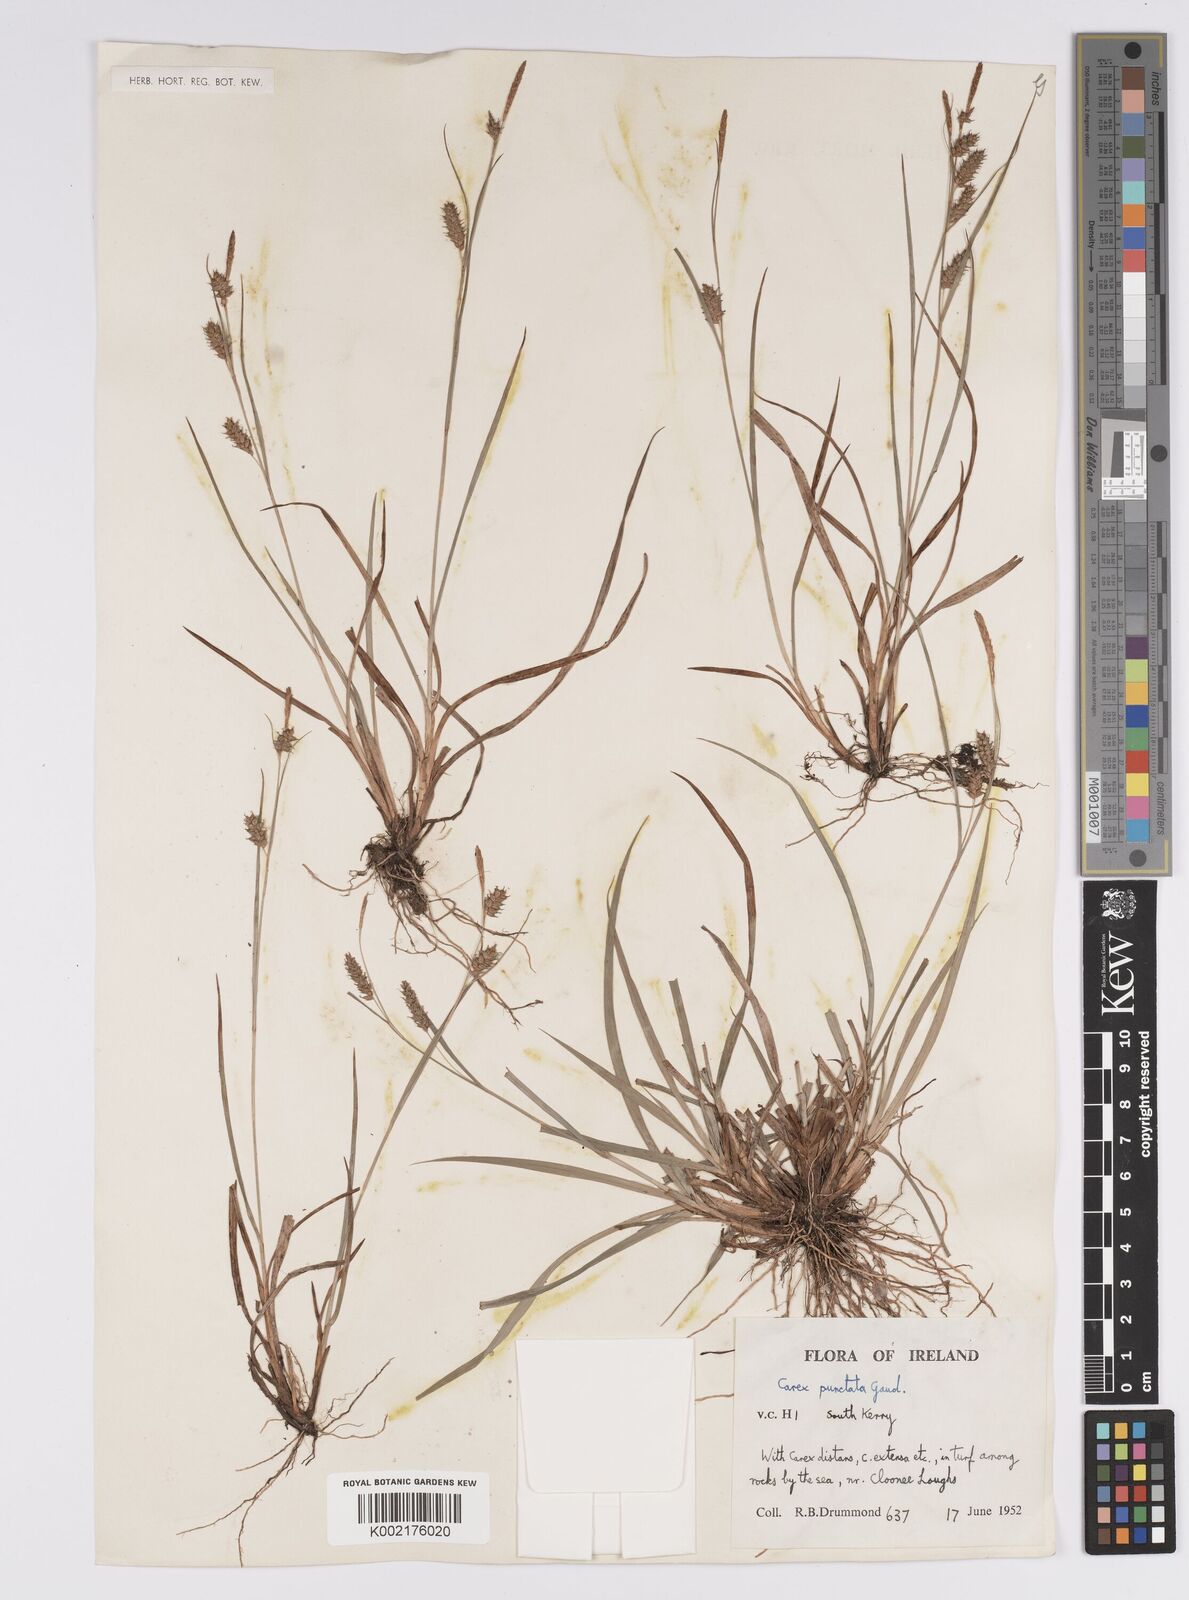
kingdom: Plantae
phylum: Tracheophyta
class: Liliopsida
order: Poales
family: Cyperaceae
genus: Carex
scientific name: Carex punctata
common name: Dotted sedge
